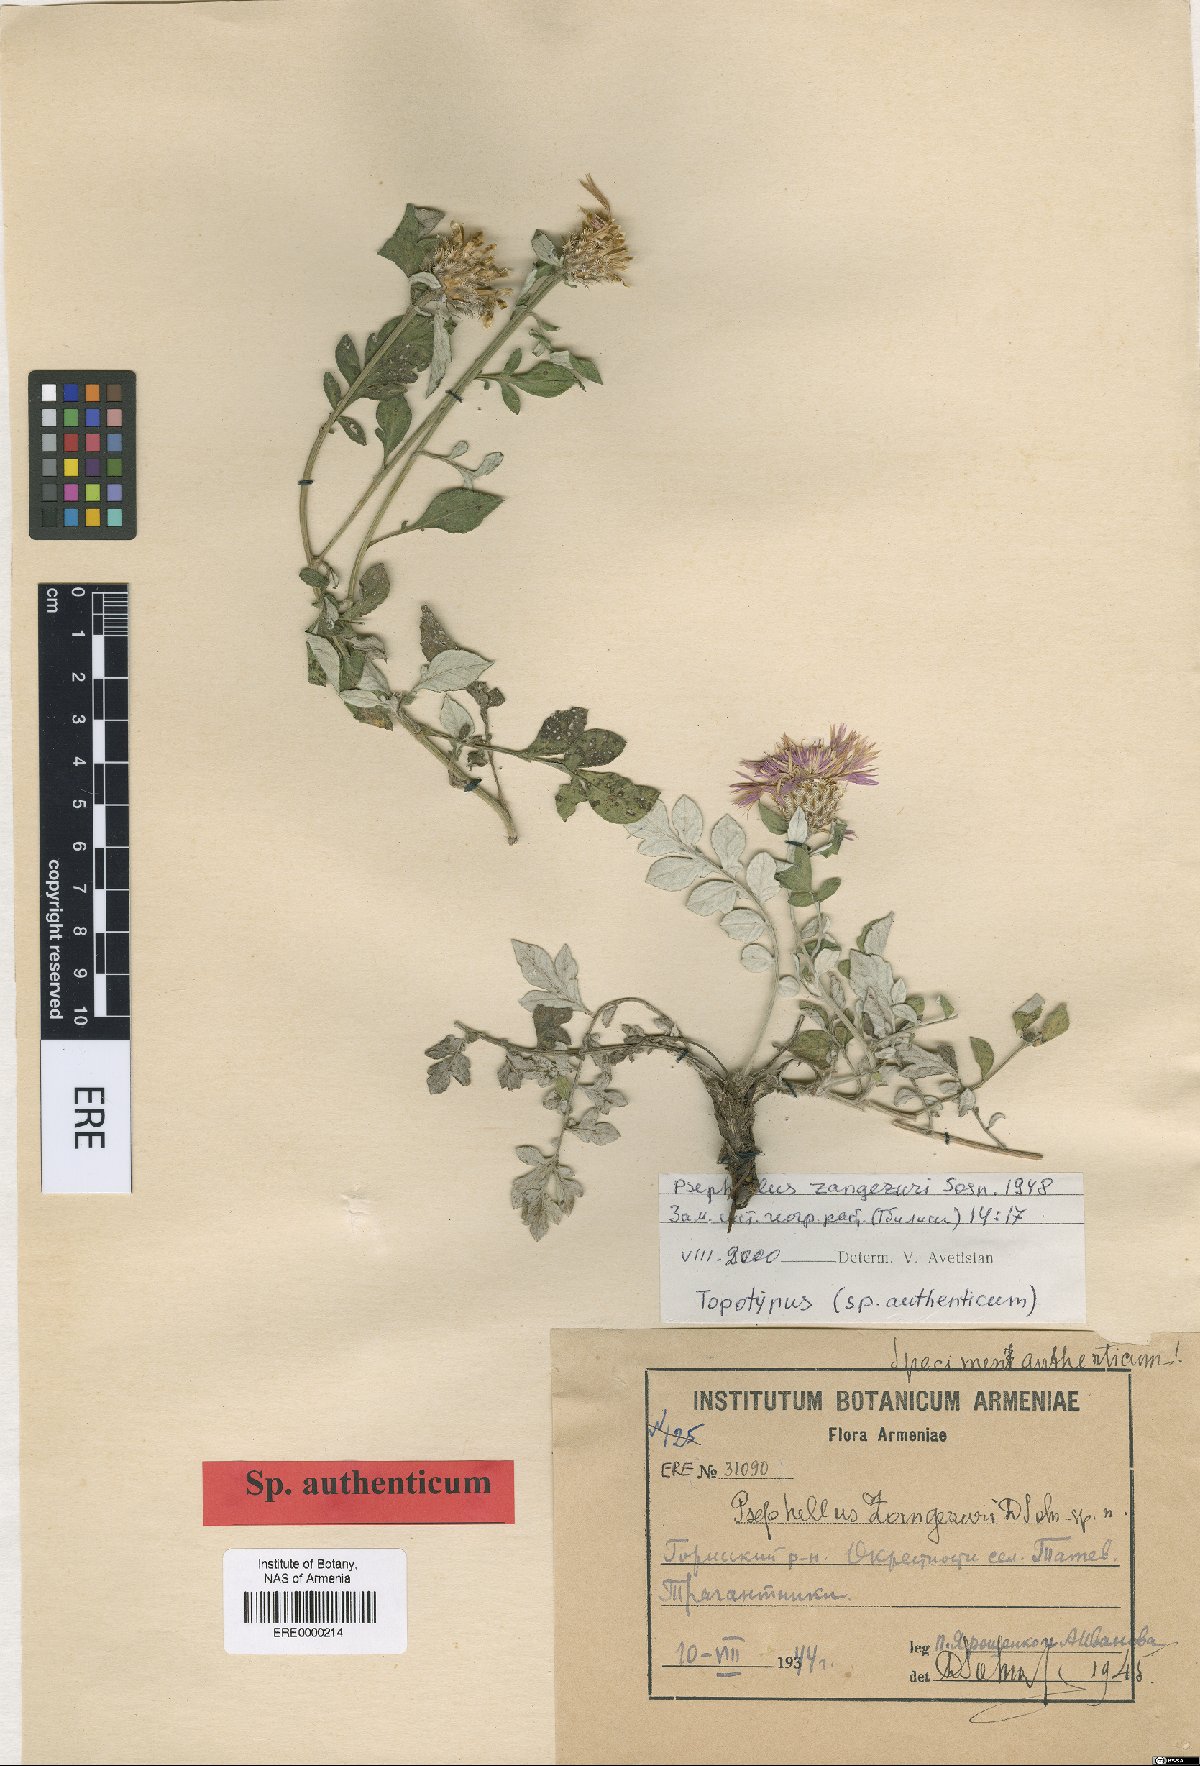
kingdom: Plantae
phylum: Tracheophyta
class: Magnoliopsida
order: Asterales
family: Asteraceae
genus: Psephellus
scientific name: Psephellus zangezuri
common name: Zangezurian cornflower
